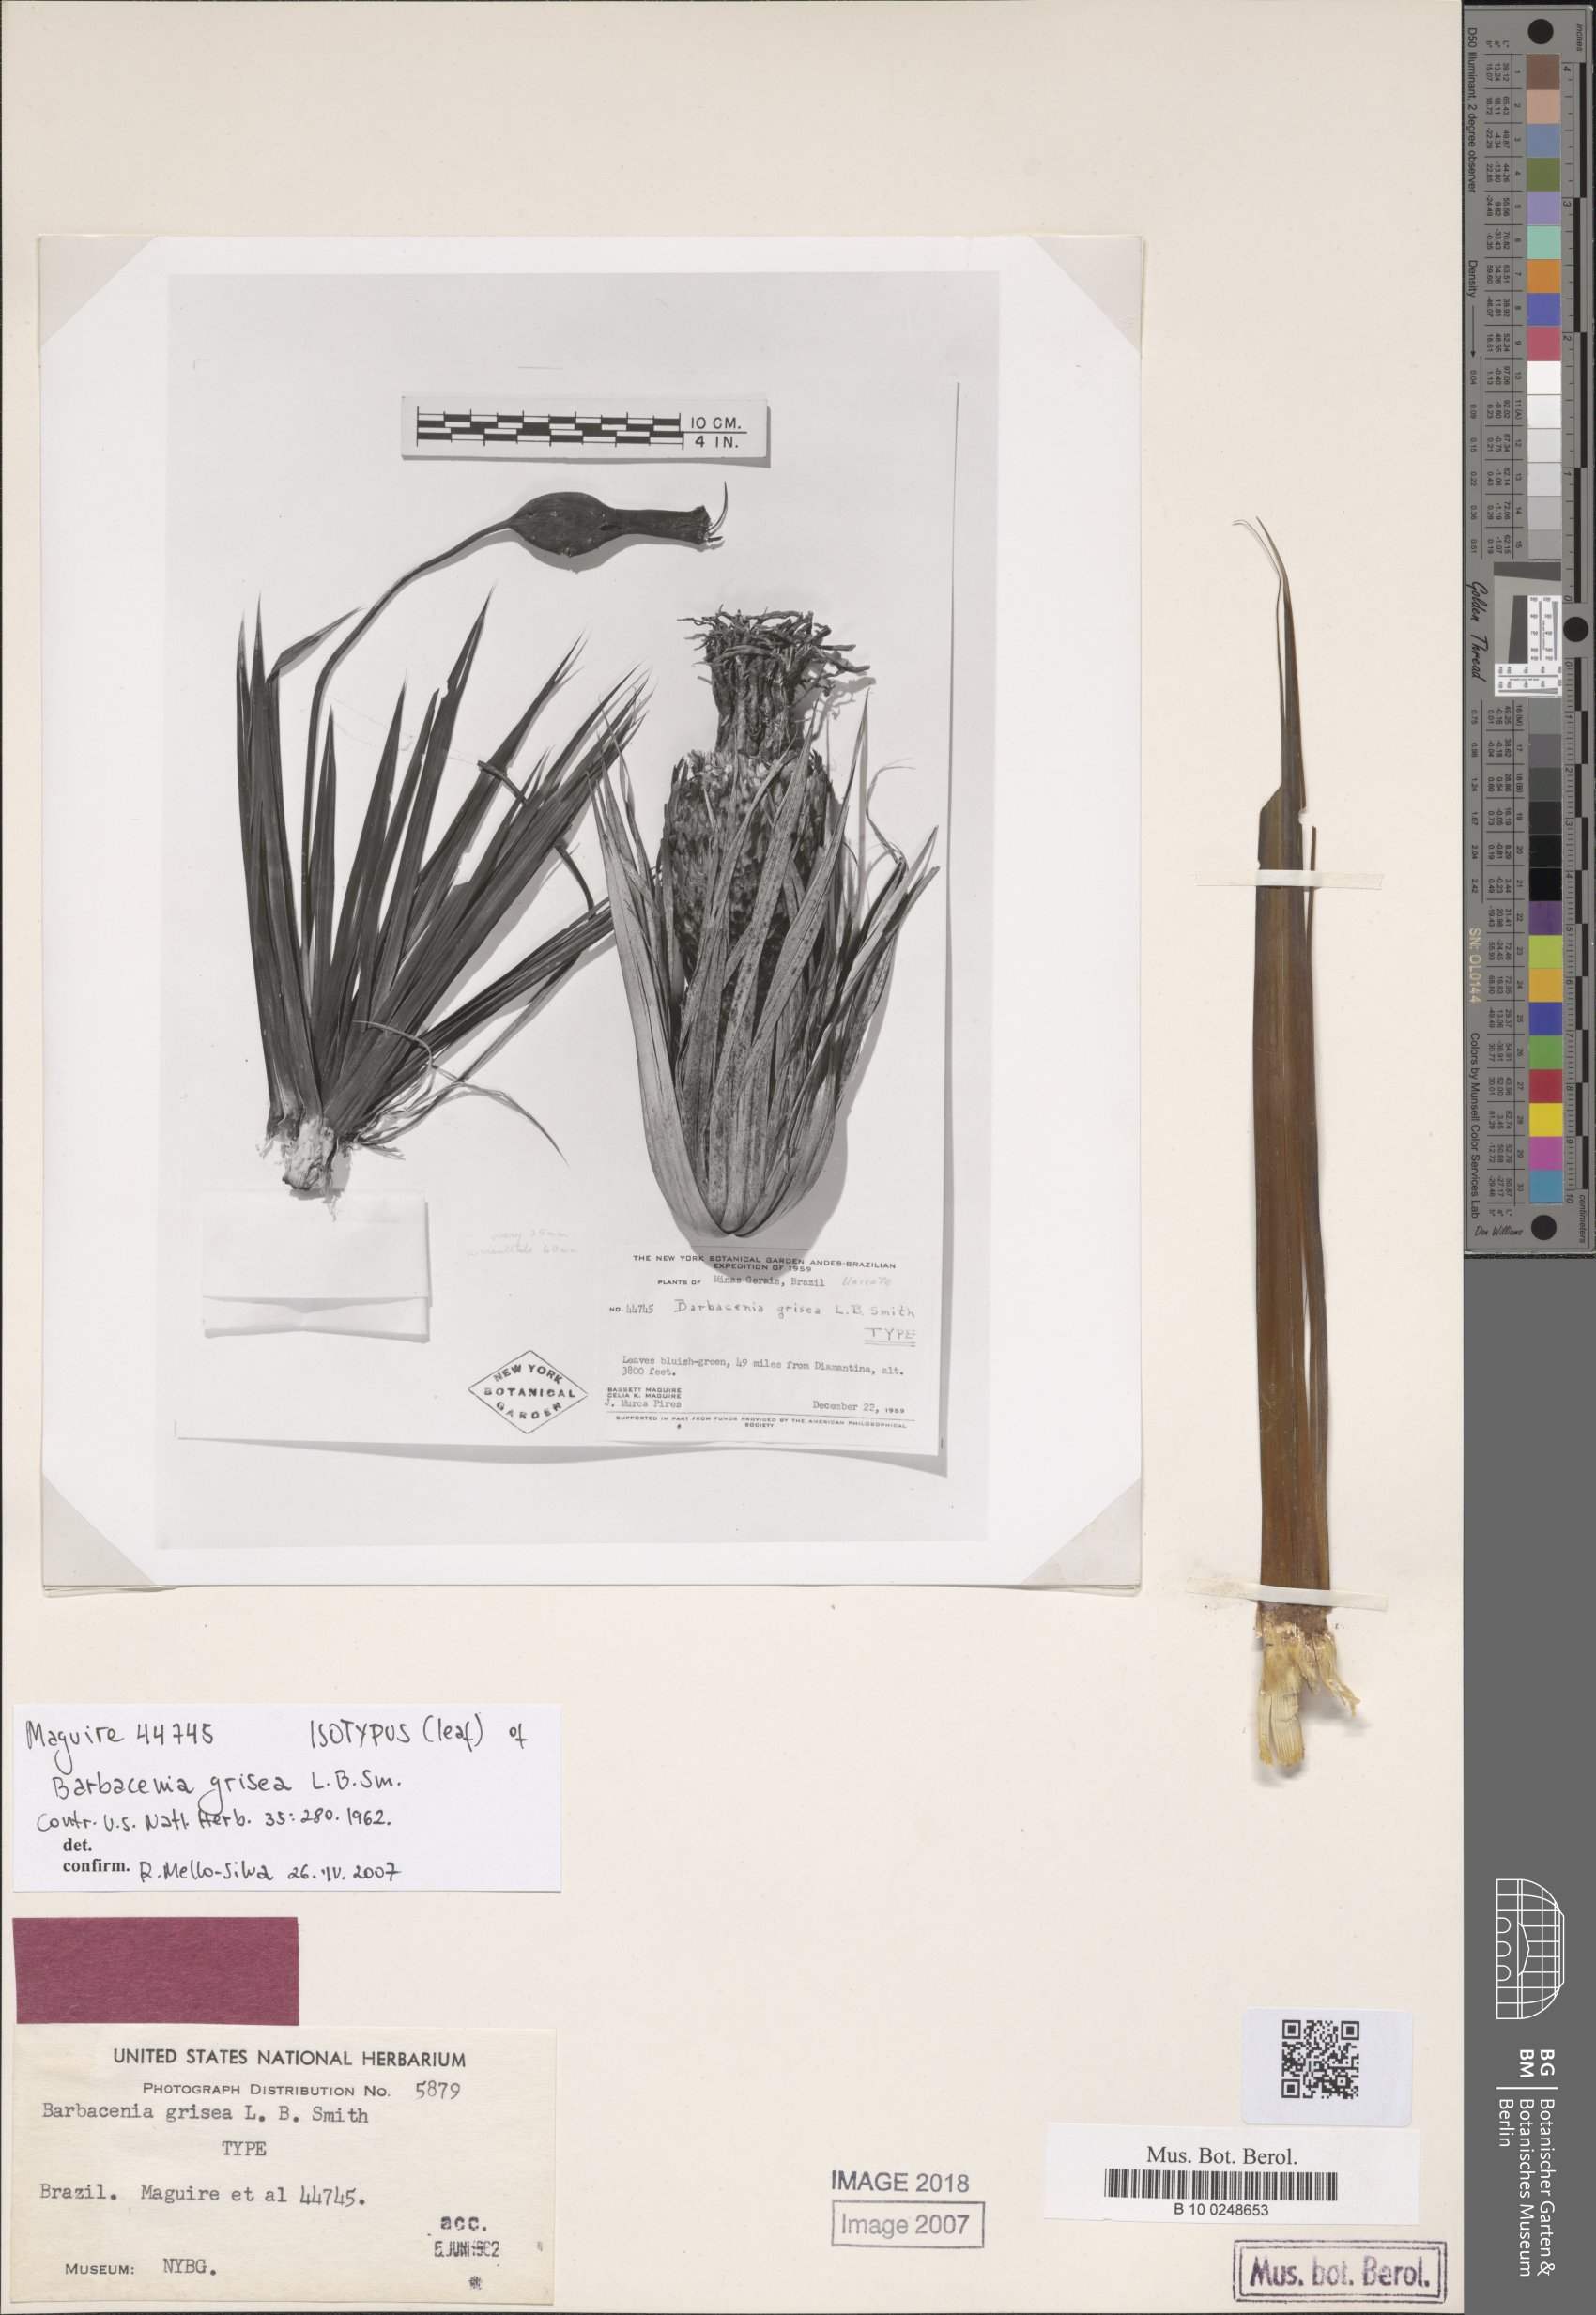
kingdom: Plantae
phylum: Tracheophyta
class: Liliopsida
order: Pandanales
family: Velloziaceae
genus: Barbacenia
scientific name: Barbacenia grisea
